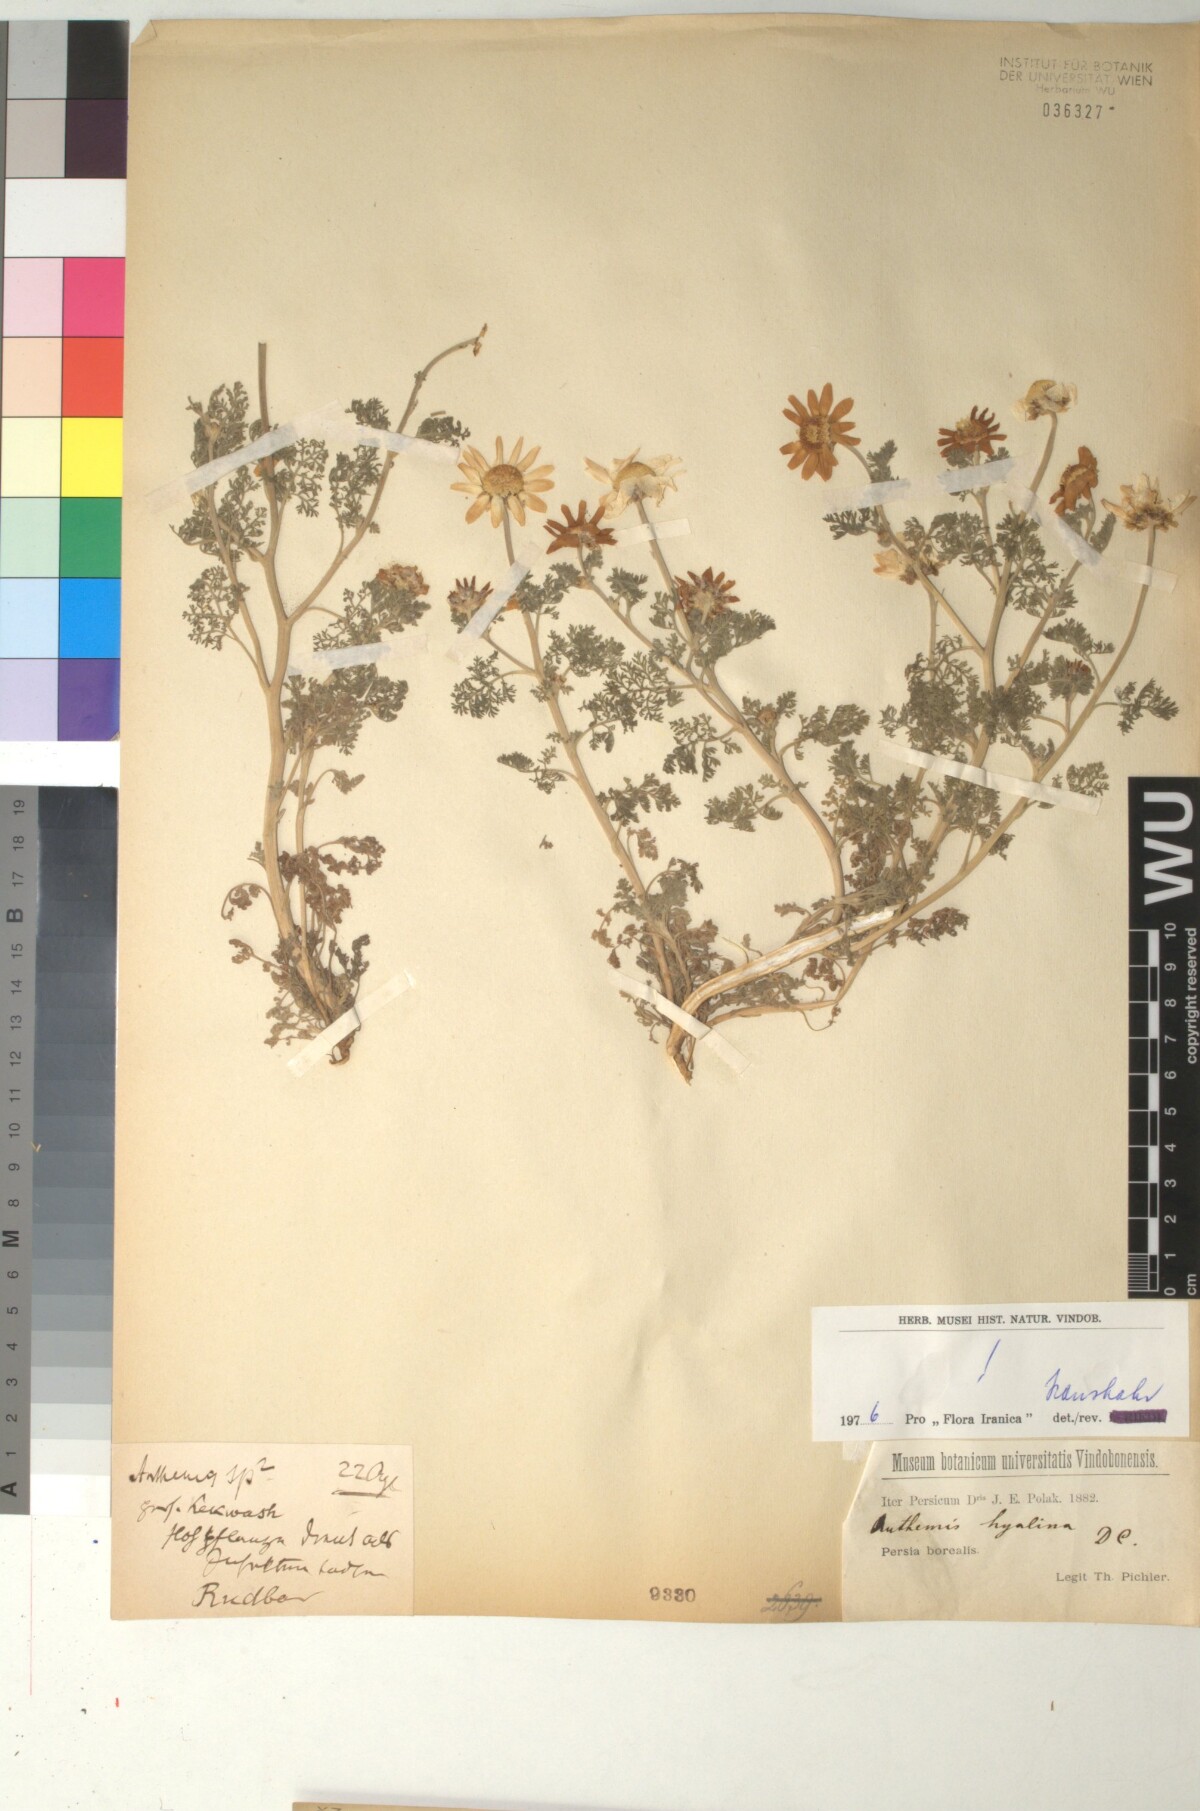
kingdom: Plantae
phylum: Tracheophyta
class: Magnoliopsida
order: Asterales
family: Asteraceae
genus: Anthemis
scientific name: Anthemis hyalina
